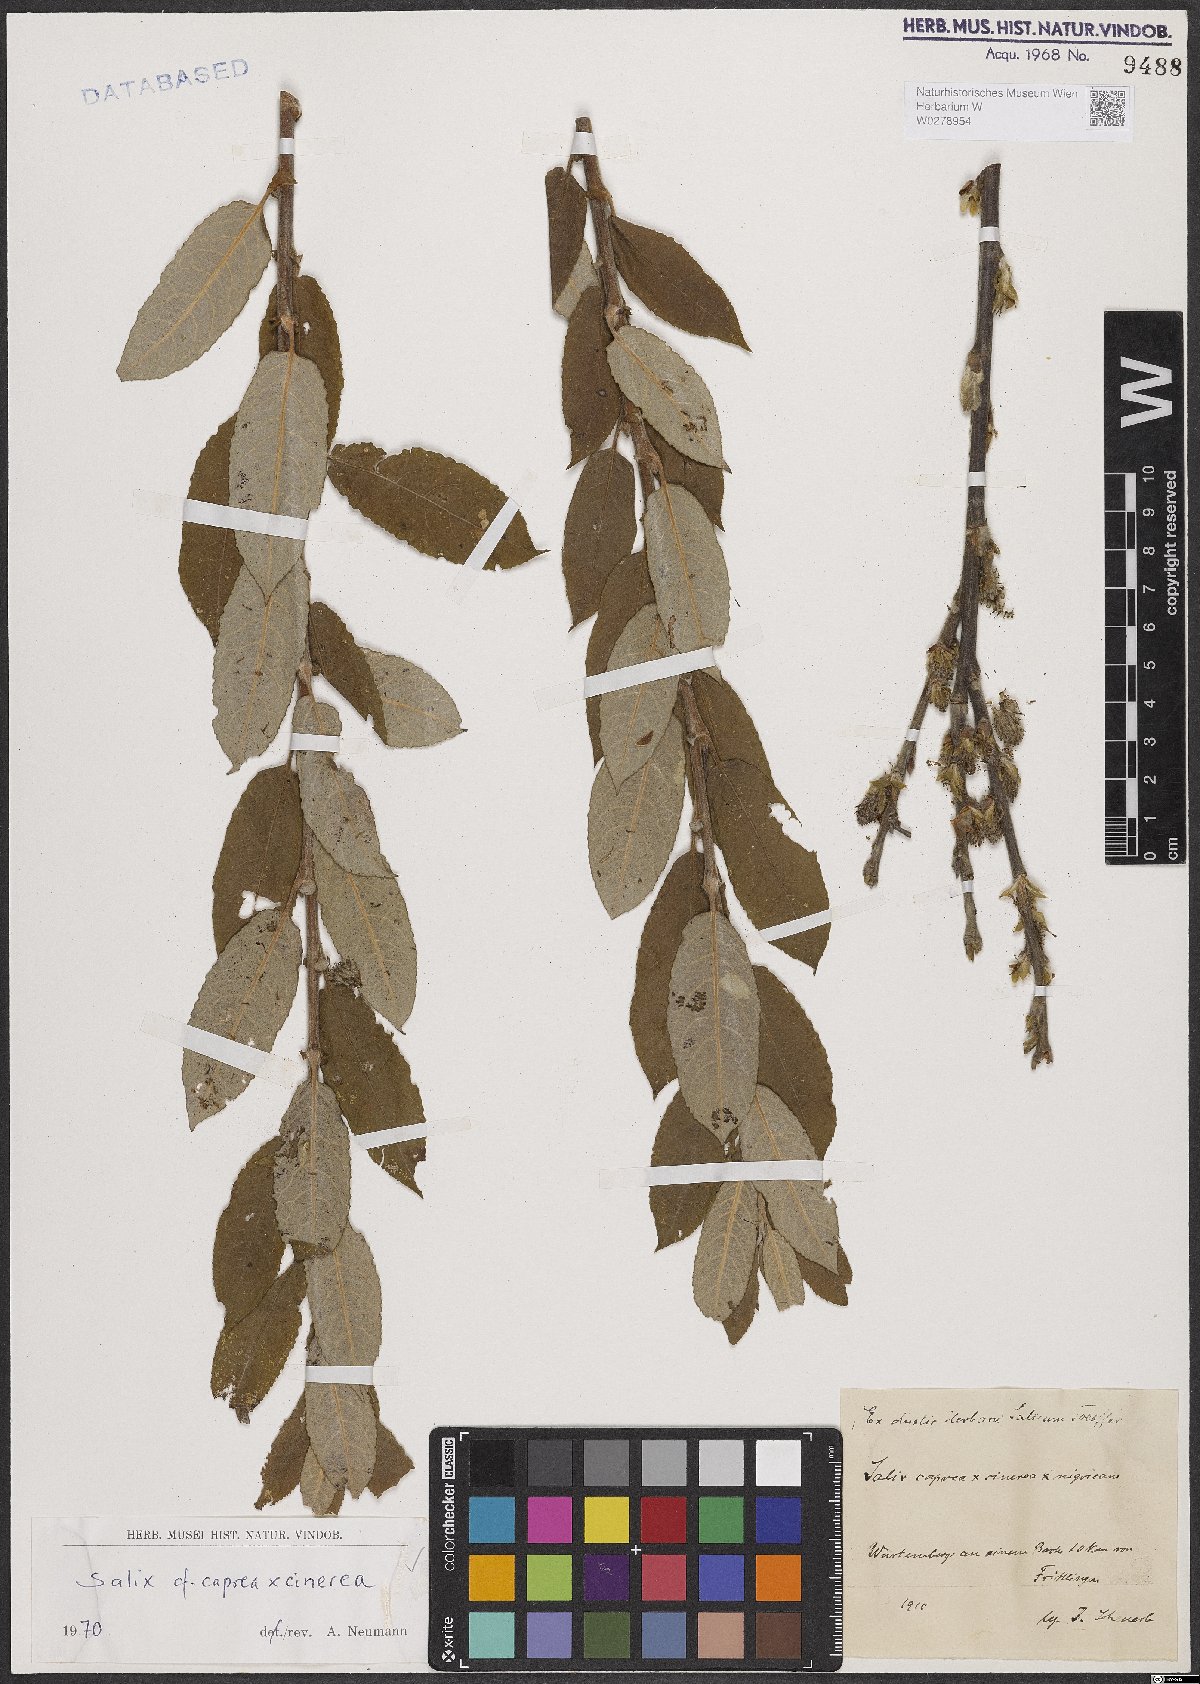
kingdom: Plantae
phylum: Tracheophyta
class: Magnoliopsida
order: Malpighiales
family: Salicaceae
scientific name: Salicaceae
